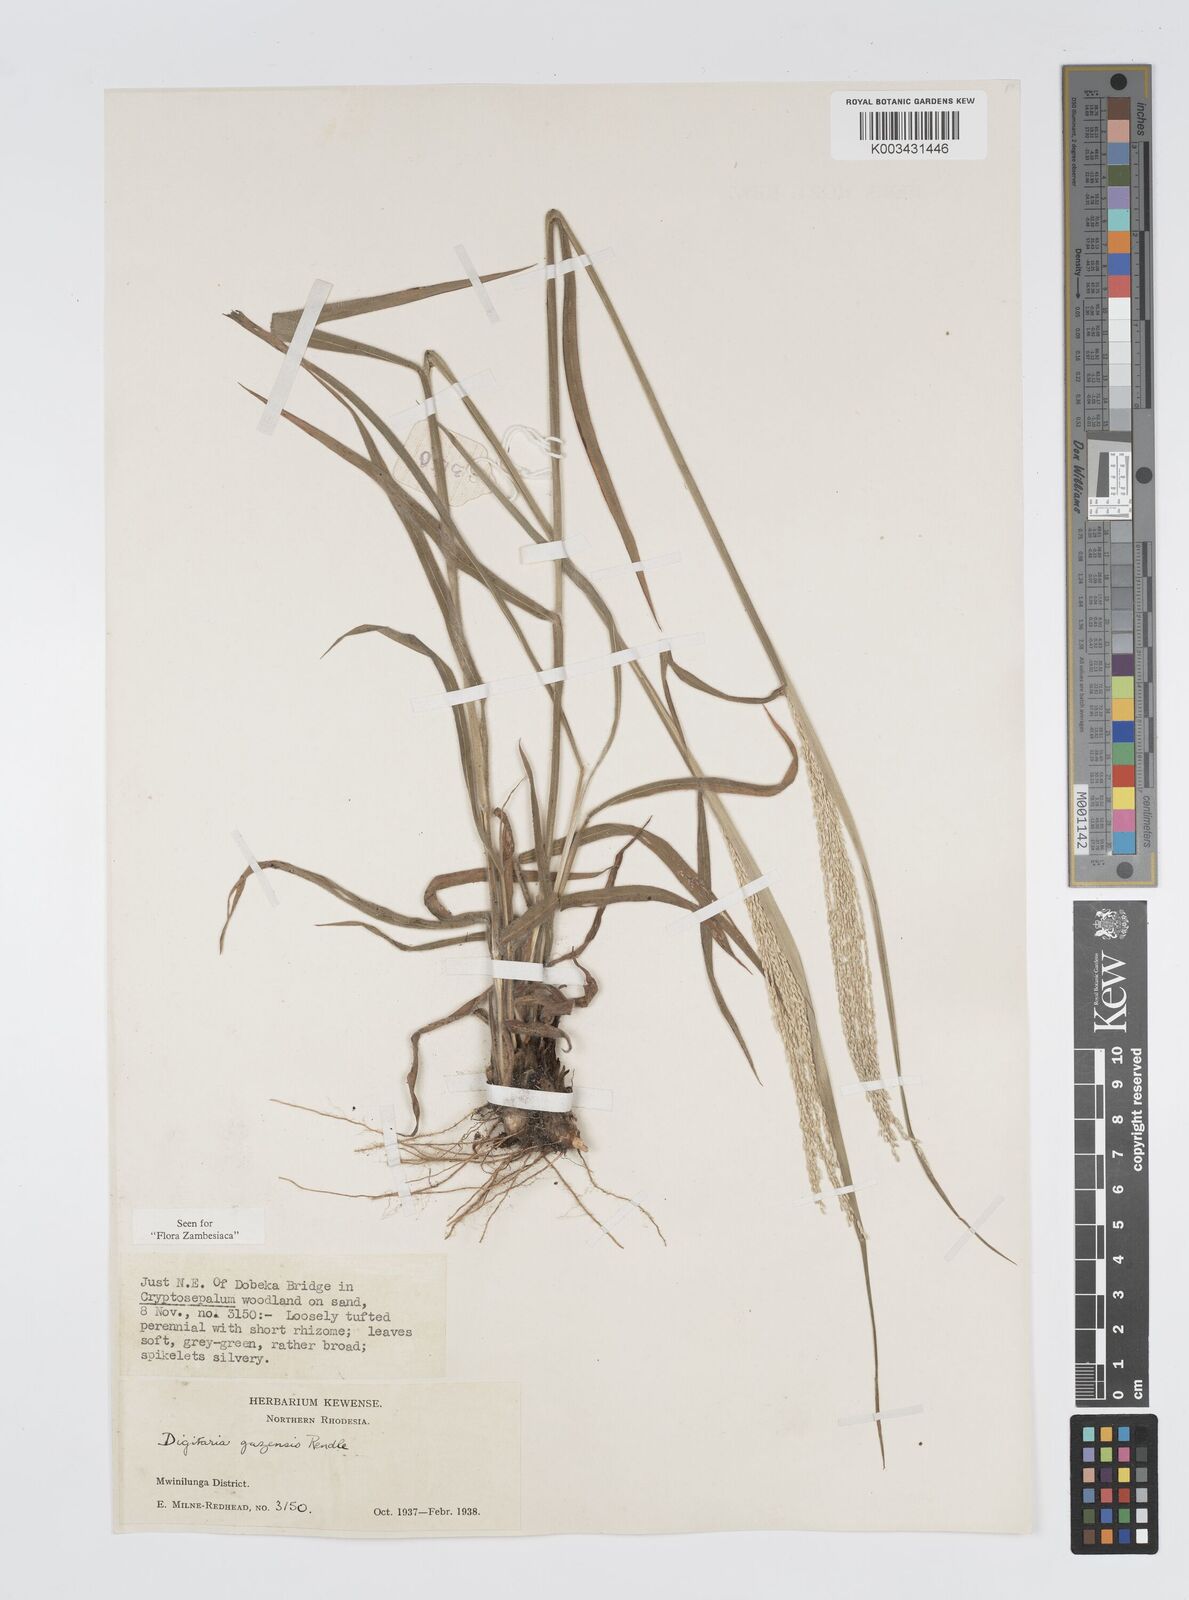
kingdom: Plantae
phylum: Tracheophyta
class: Liliopsida
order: Poales
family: Poaceae
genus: Digitaria
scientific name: Digitaria gazensis
